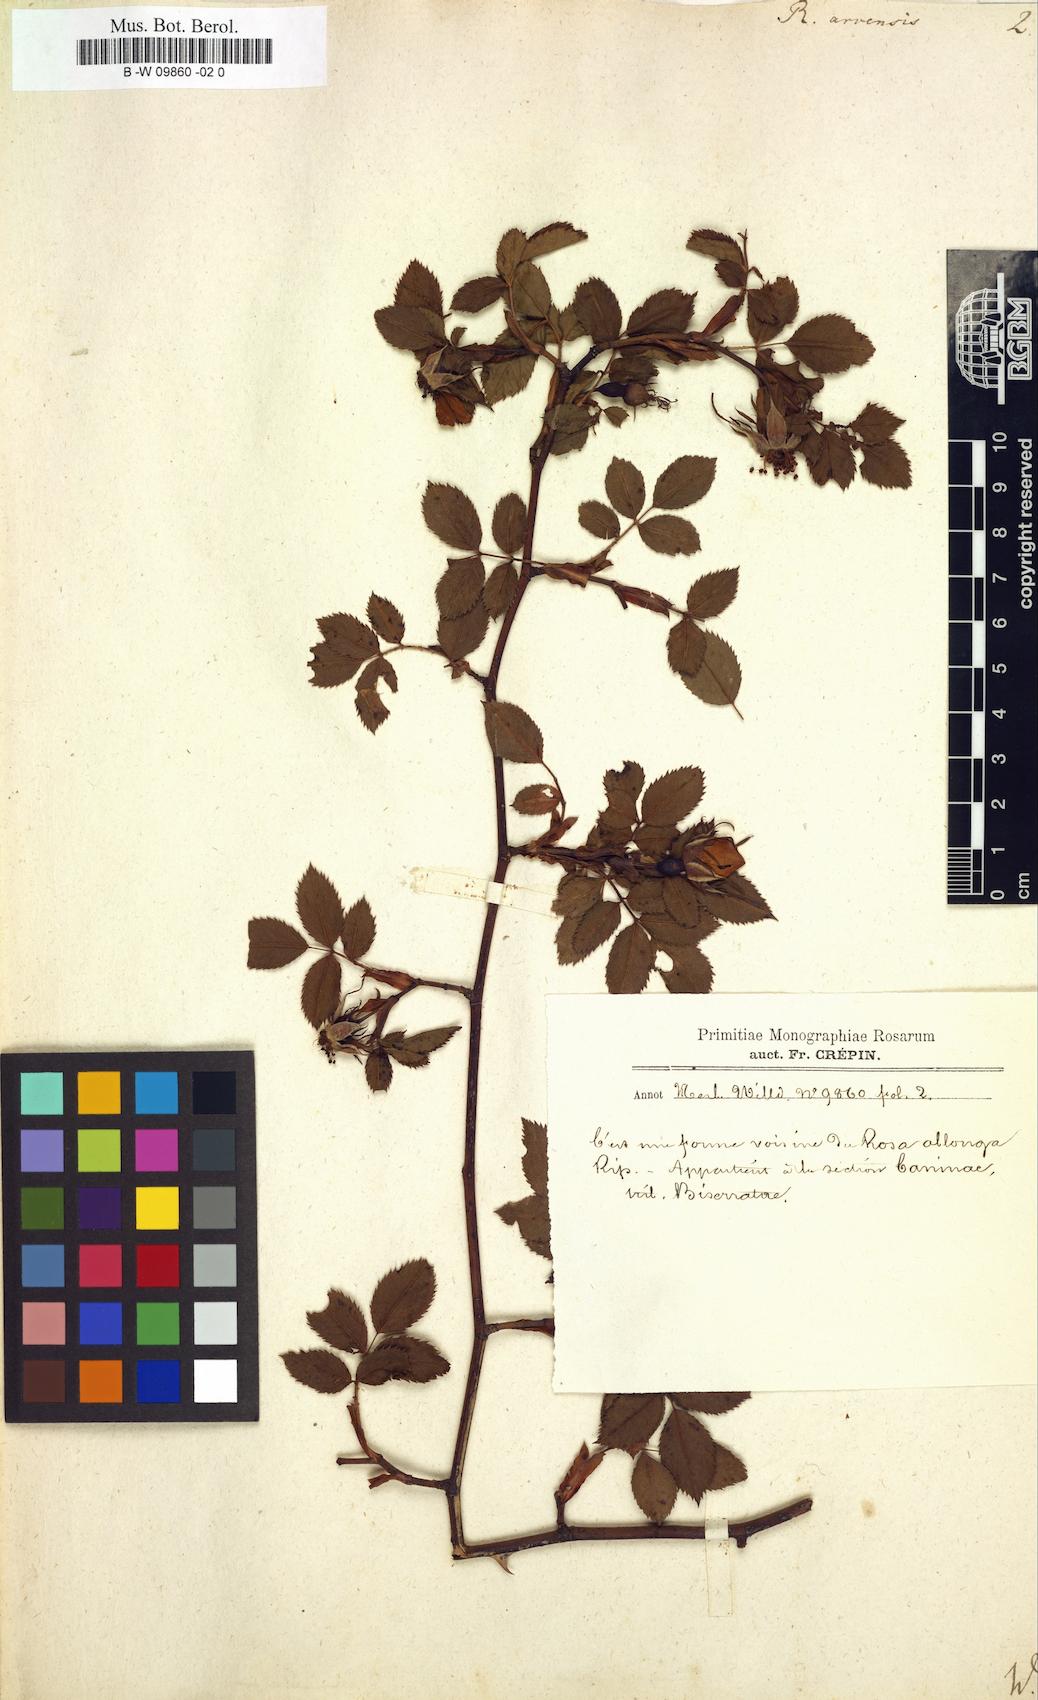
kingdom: Plantae
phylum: Tracheophyta
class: Magnoliopsida
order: Rosales
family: Rosaceae
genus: Rosa
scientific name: Rosa arvensis
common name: Field rose
